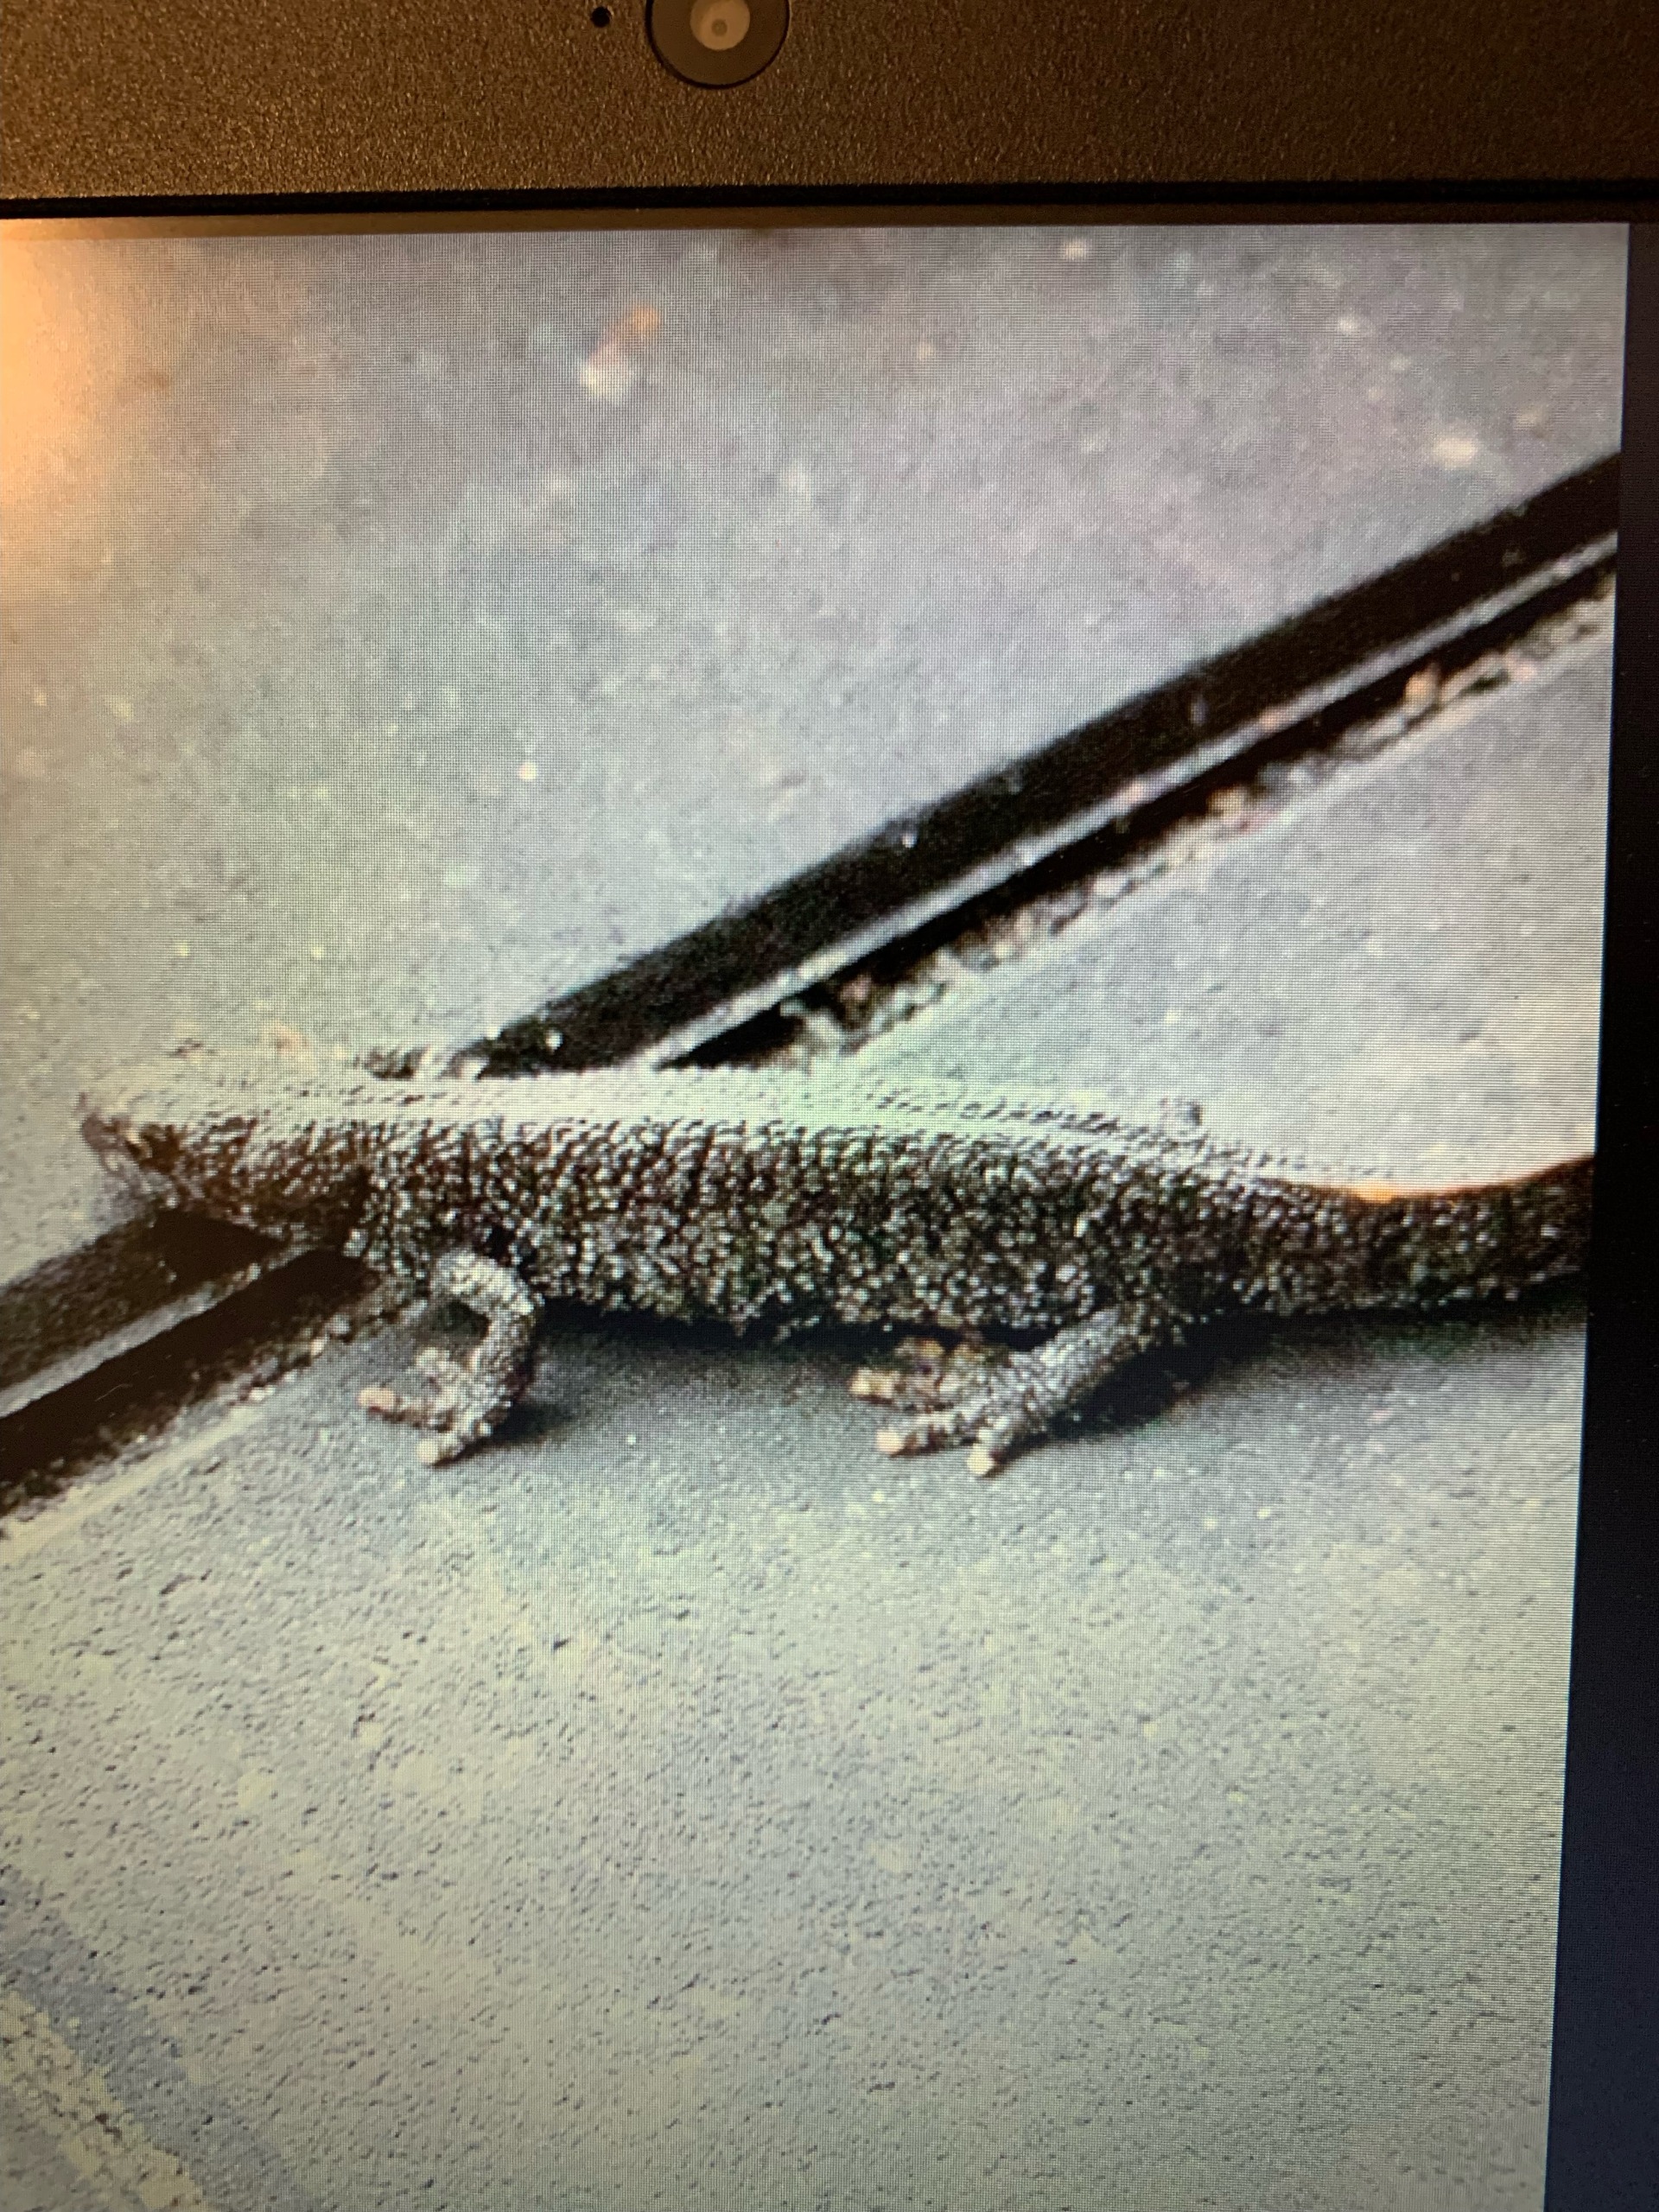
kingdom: Animalia
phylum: Chordata
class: Amphibia
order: Caudata
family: Salamandridae
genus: Triturus
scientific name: Triturus cristatus
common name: Stor vandsalamander
